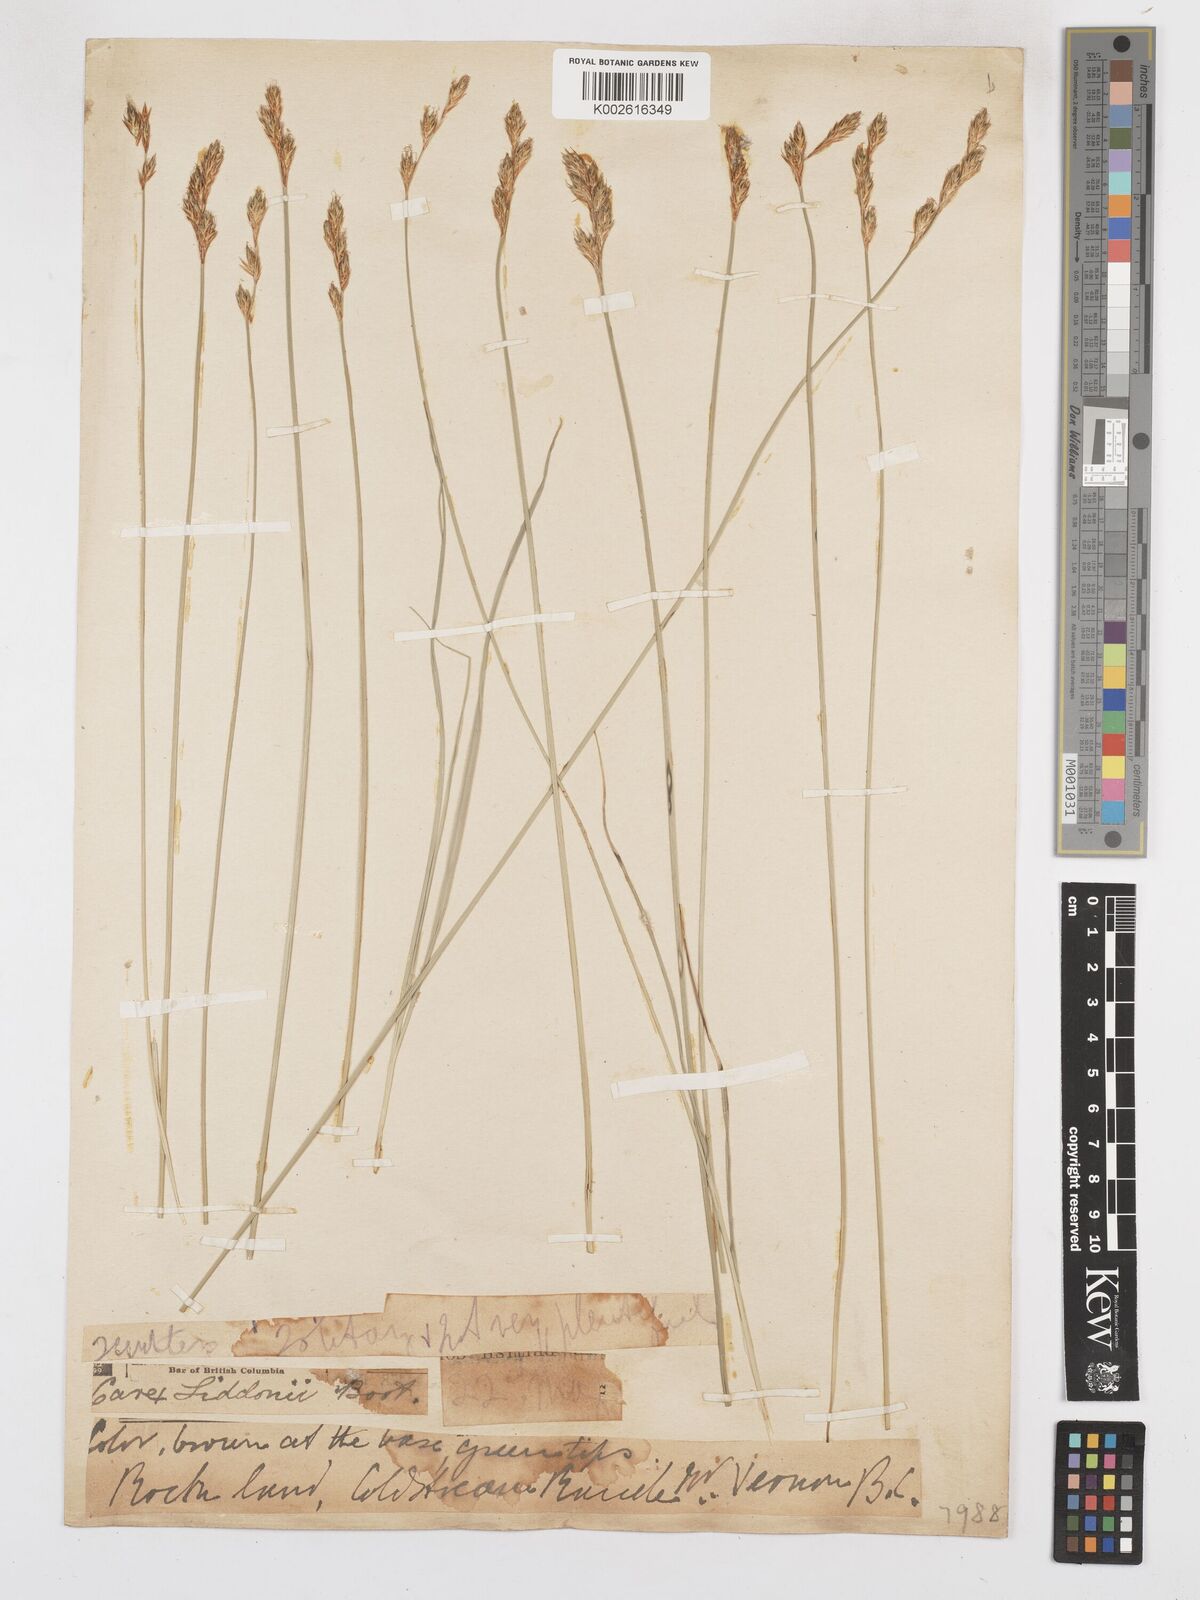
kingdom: Plantae
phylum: Tracheophyta
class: Liliopsida
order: Poales
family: Cyperaceae
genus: Carex
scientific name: Carex tribuloides
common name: Blunt broom sedge
